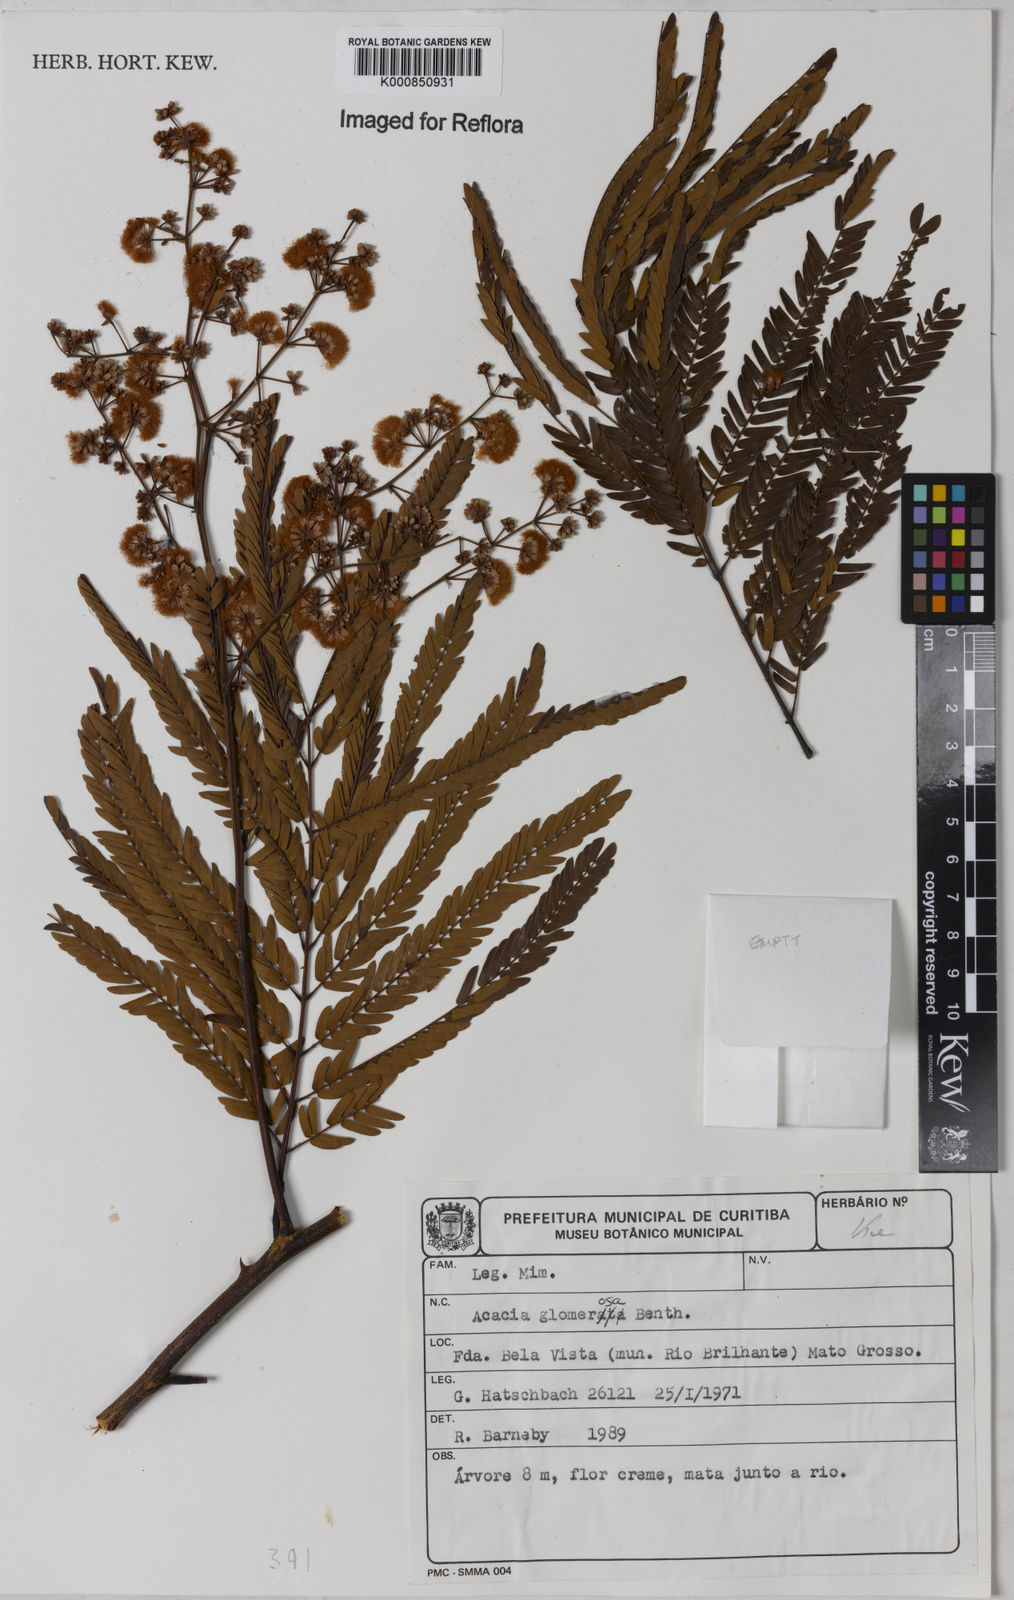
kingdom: Plantae
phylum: Tracheophyta
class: Magnoliopsida
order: Fabales
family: Fabaceae
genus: Senegalia
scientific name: Senegalia polyphylla
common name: White-tamarind
